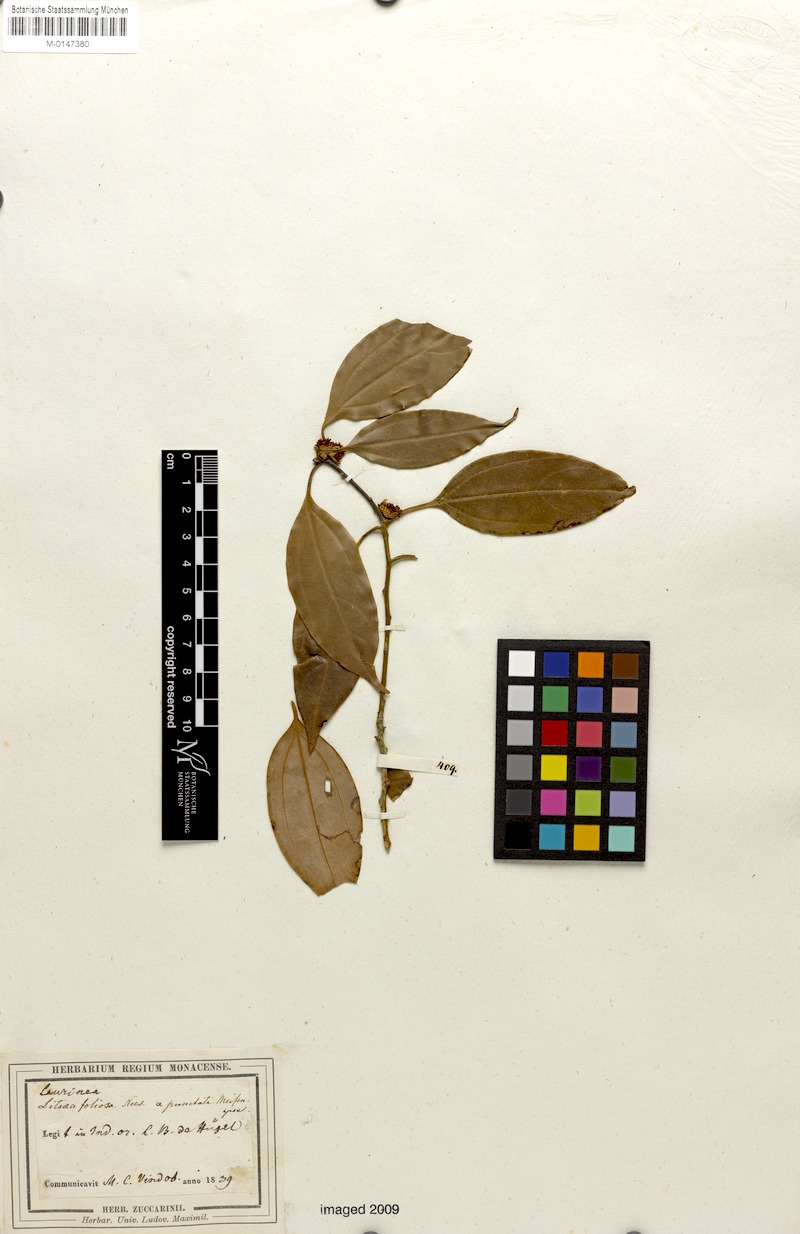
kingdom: Plantae
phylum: Tracheophyta
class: Magnoliopsida
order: Laurales
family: Lauraceae
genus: Neolitsea
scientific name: Neolitsea umbrosa
